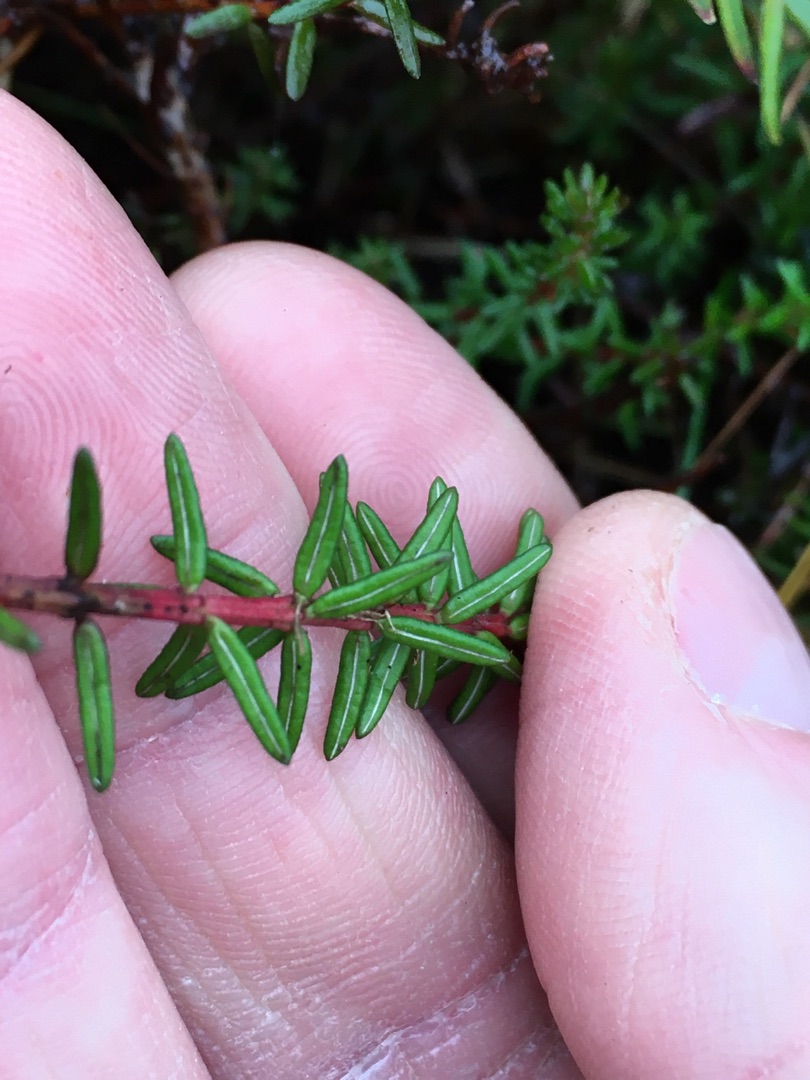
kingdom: Plantae
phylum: Tracheophyta
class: Magnoliopsida
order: Ericales
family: Ericaceae
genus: Empetrum
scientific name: Empetrum nigrum
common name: Revling
